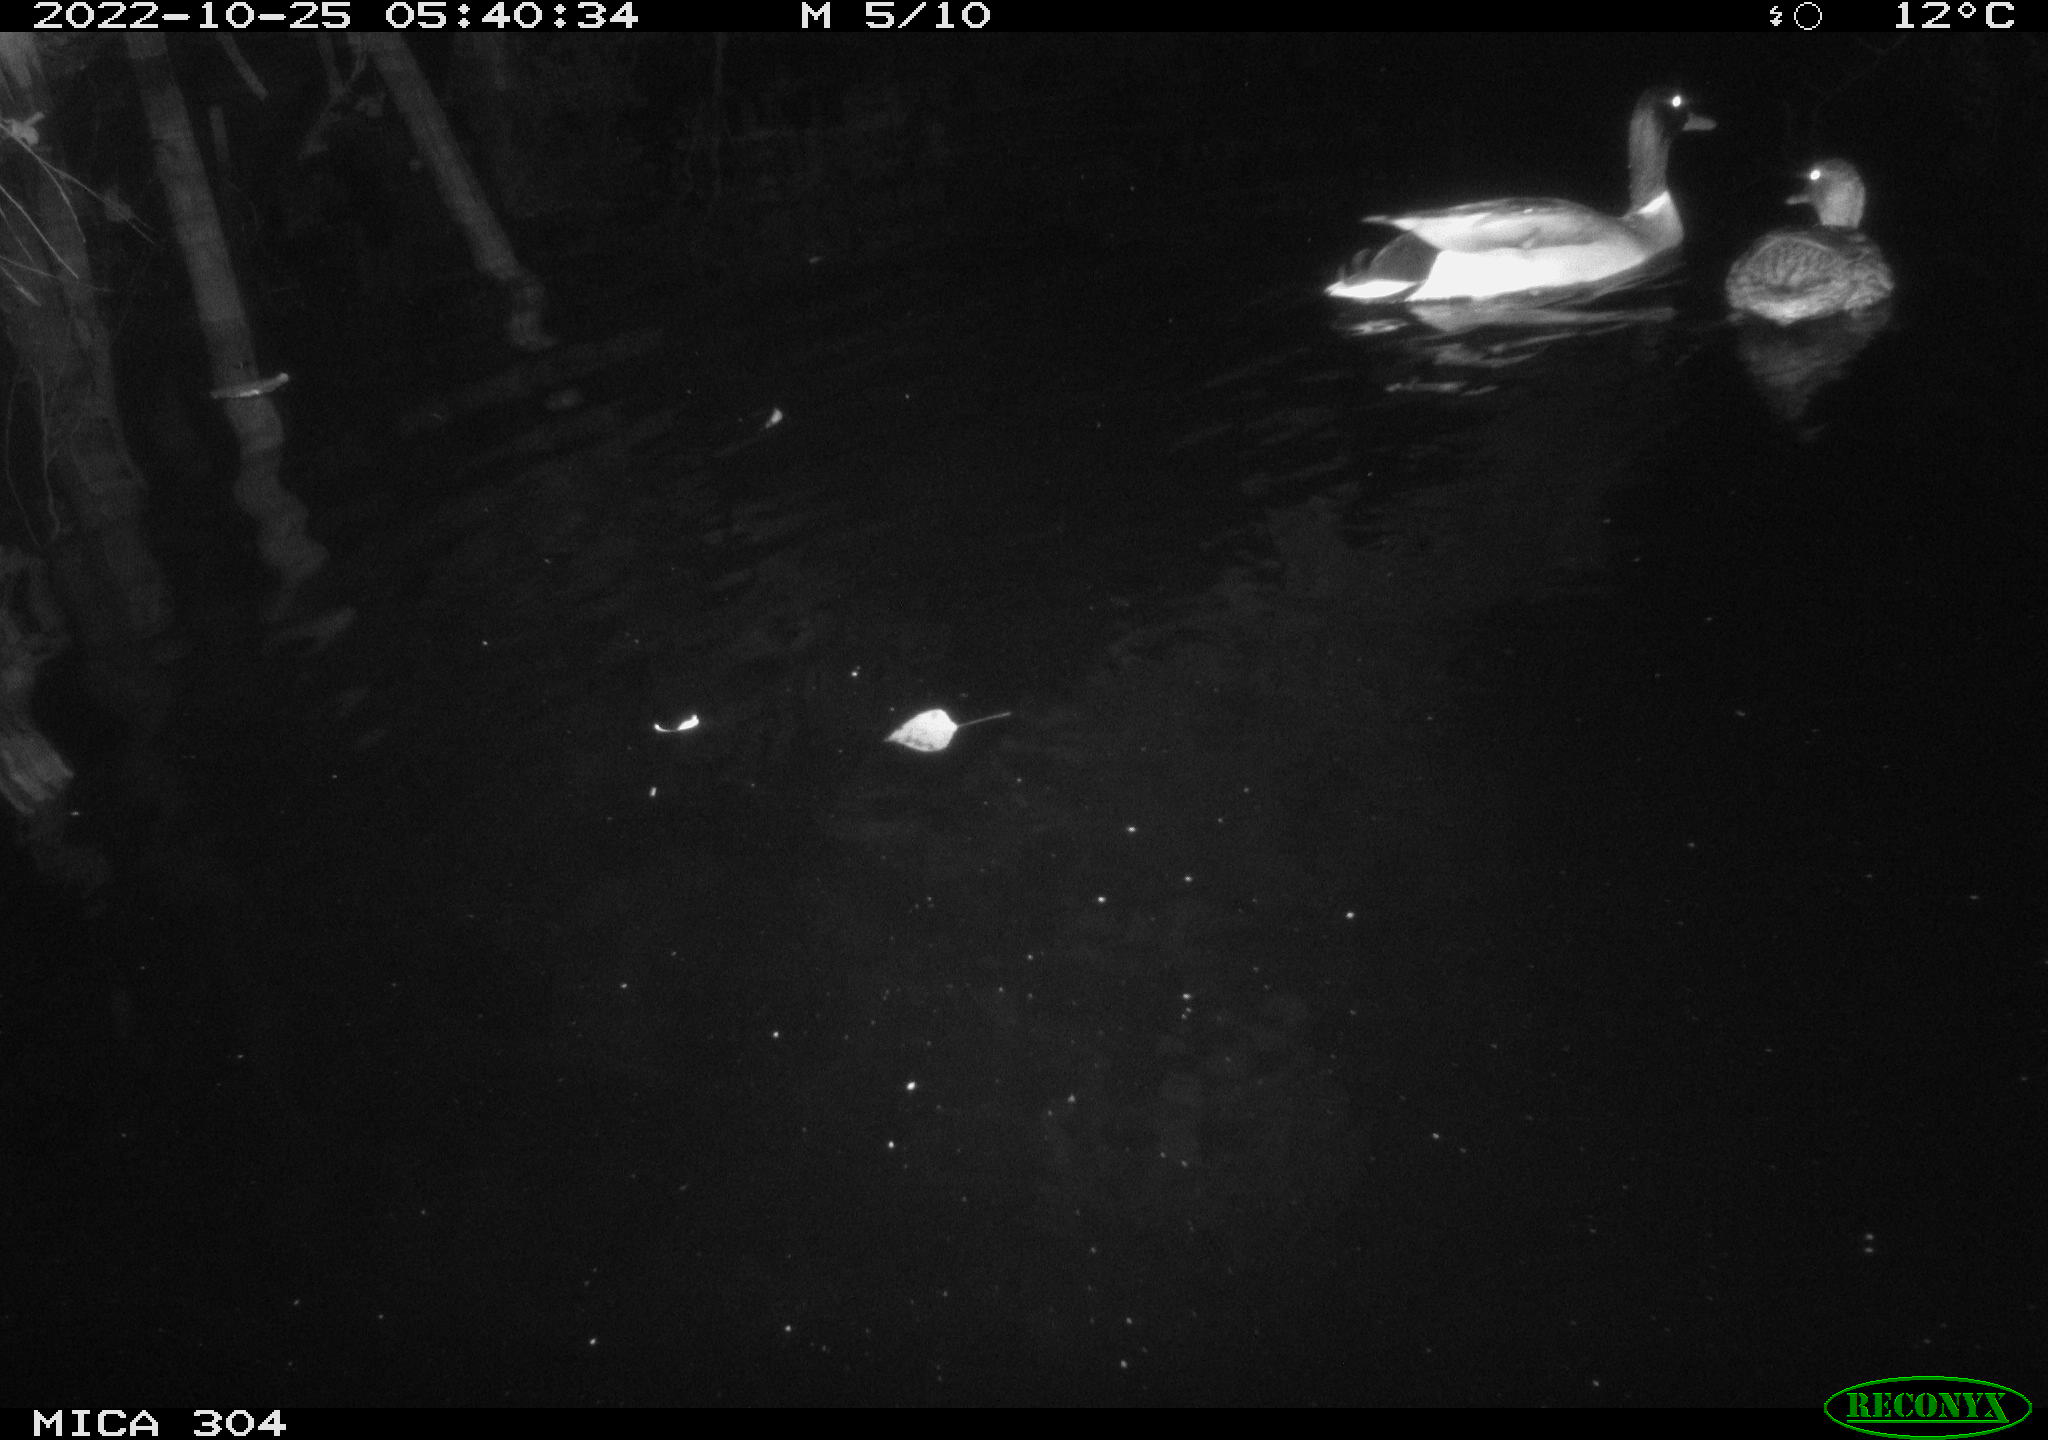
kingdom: Animalia
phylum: Chordata
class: Aves
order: Anseriformes
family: Anatidae
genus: Anas
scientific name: Anas
